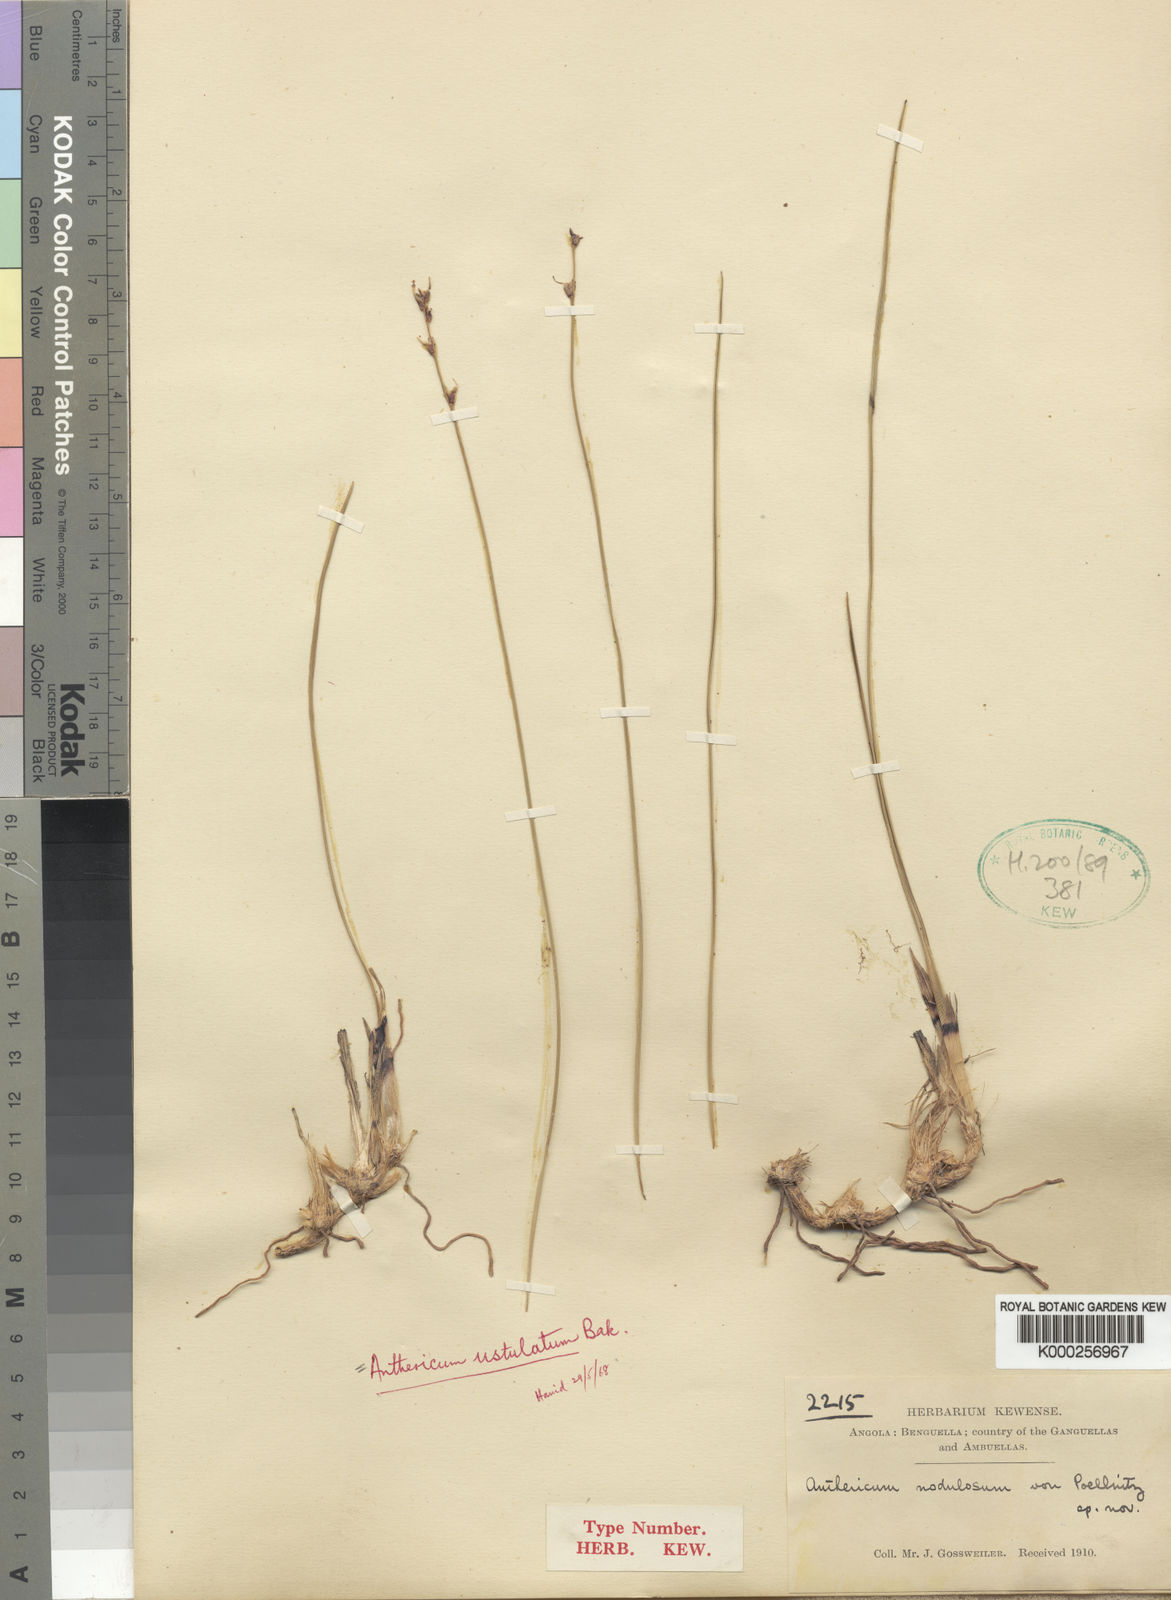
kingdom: Plantae
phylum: Tracheophyta
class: Liliopsida
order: Asparagales
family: Asparagaceae
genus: Chlorophytum
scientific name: Chlorophytum ustulatum
